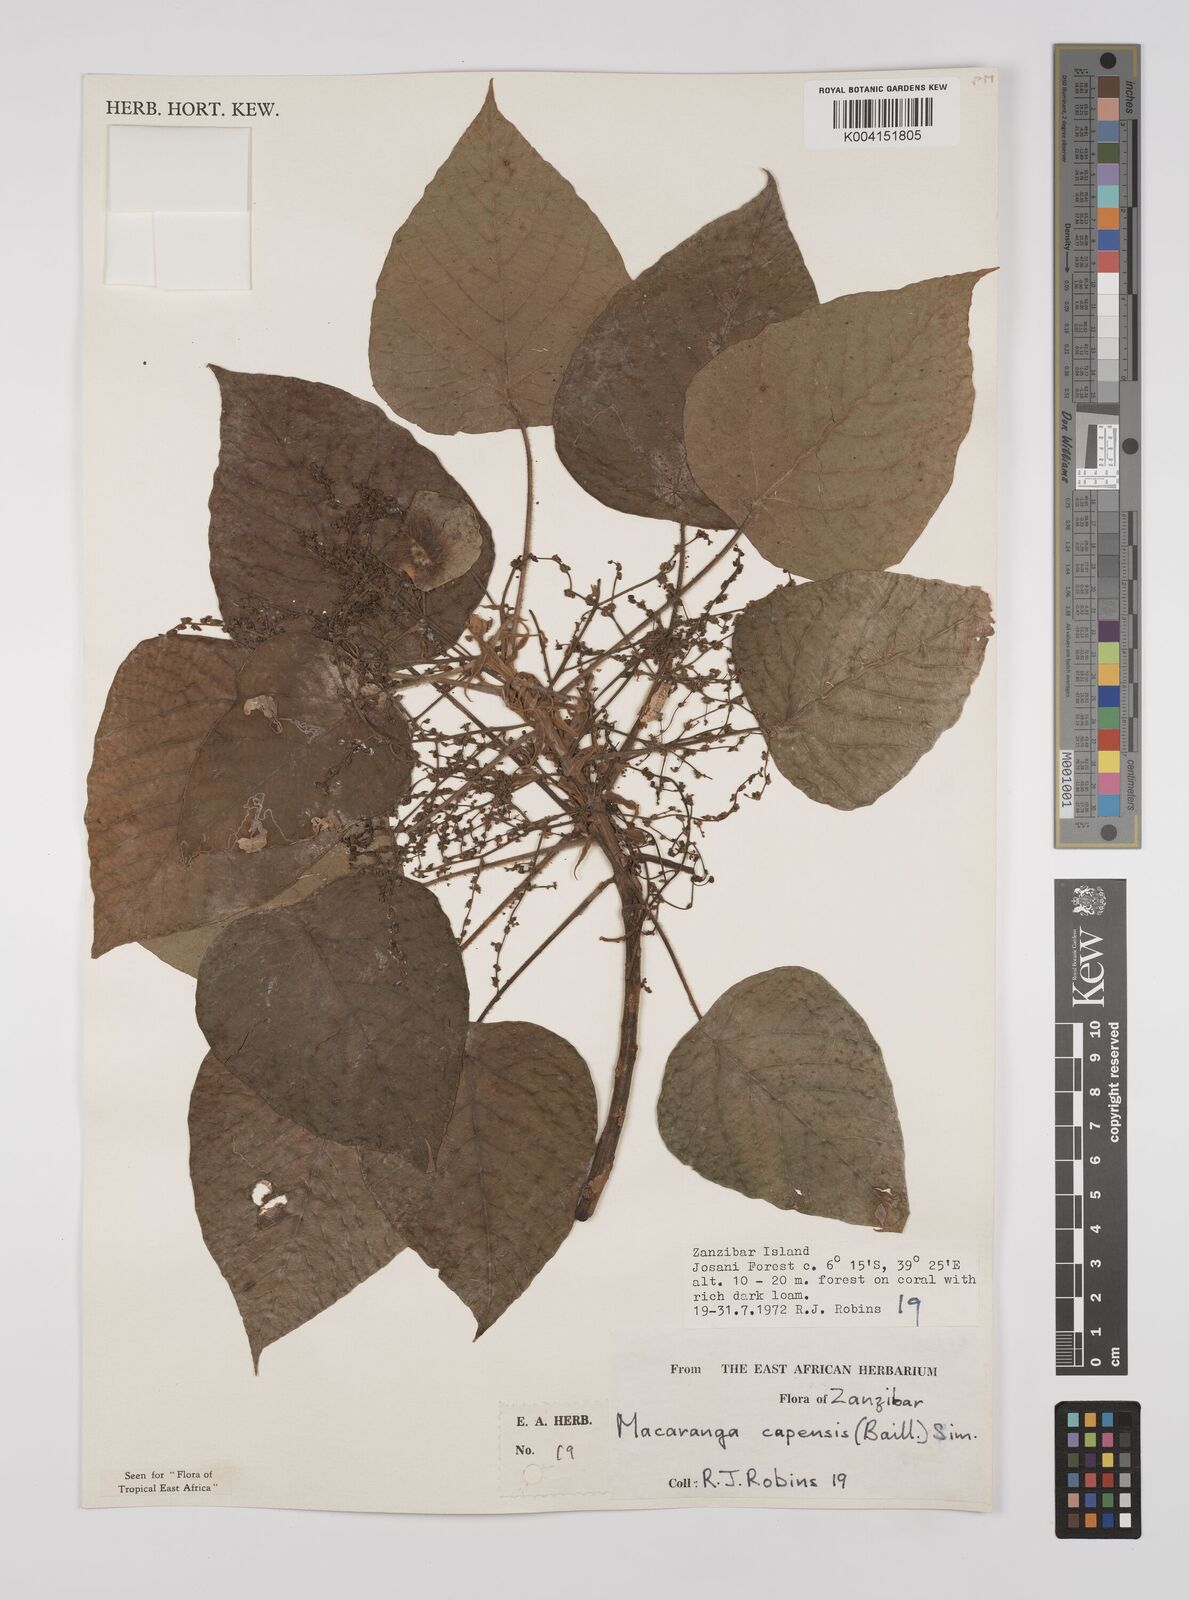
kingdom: Plantae
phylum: Tracheophyta
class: Magnoliopsida
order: Malpighiales
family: Euphorbiaceae
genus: Macaranga
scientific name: Macaranga capensis
